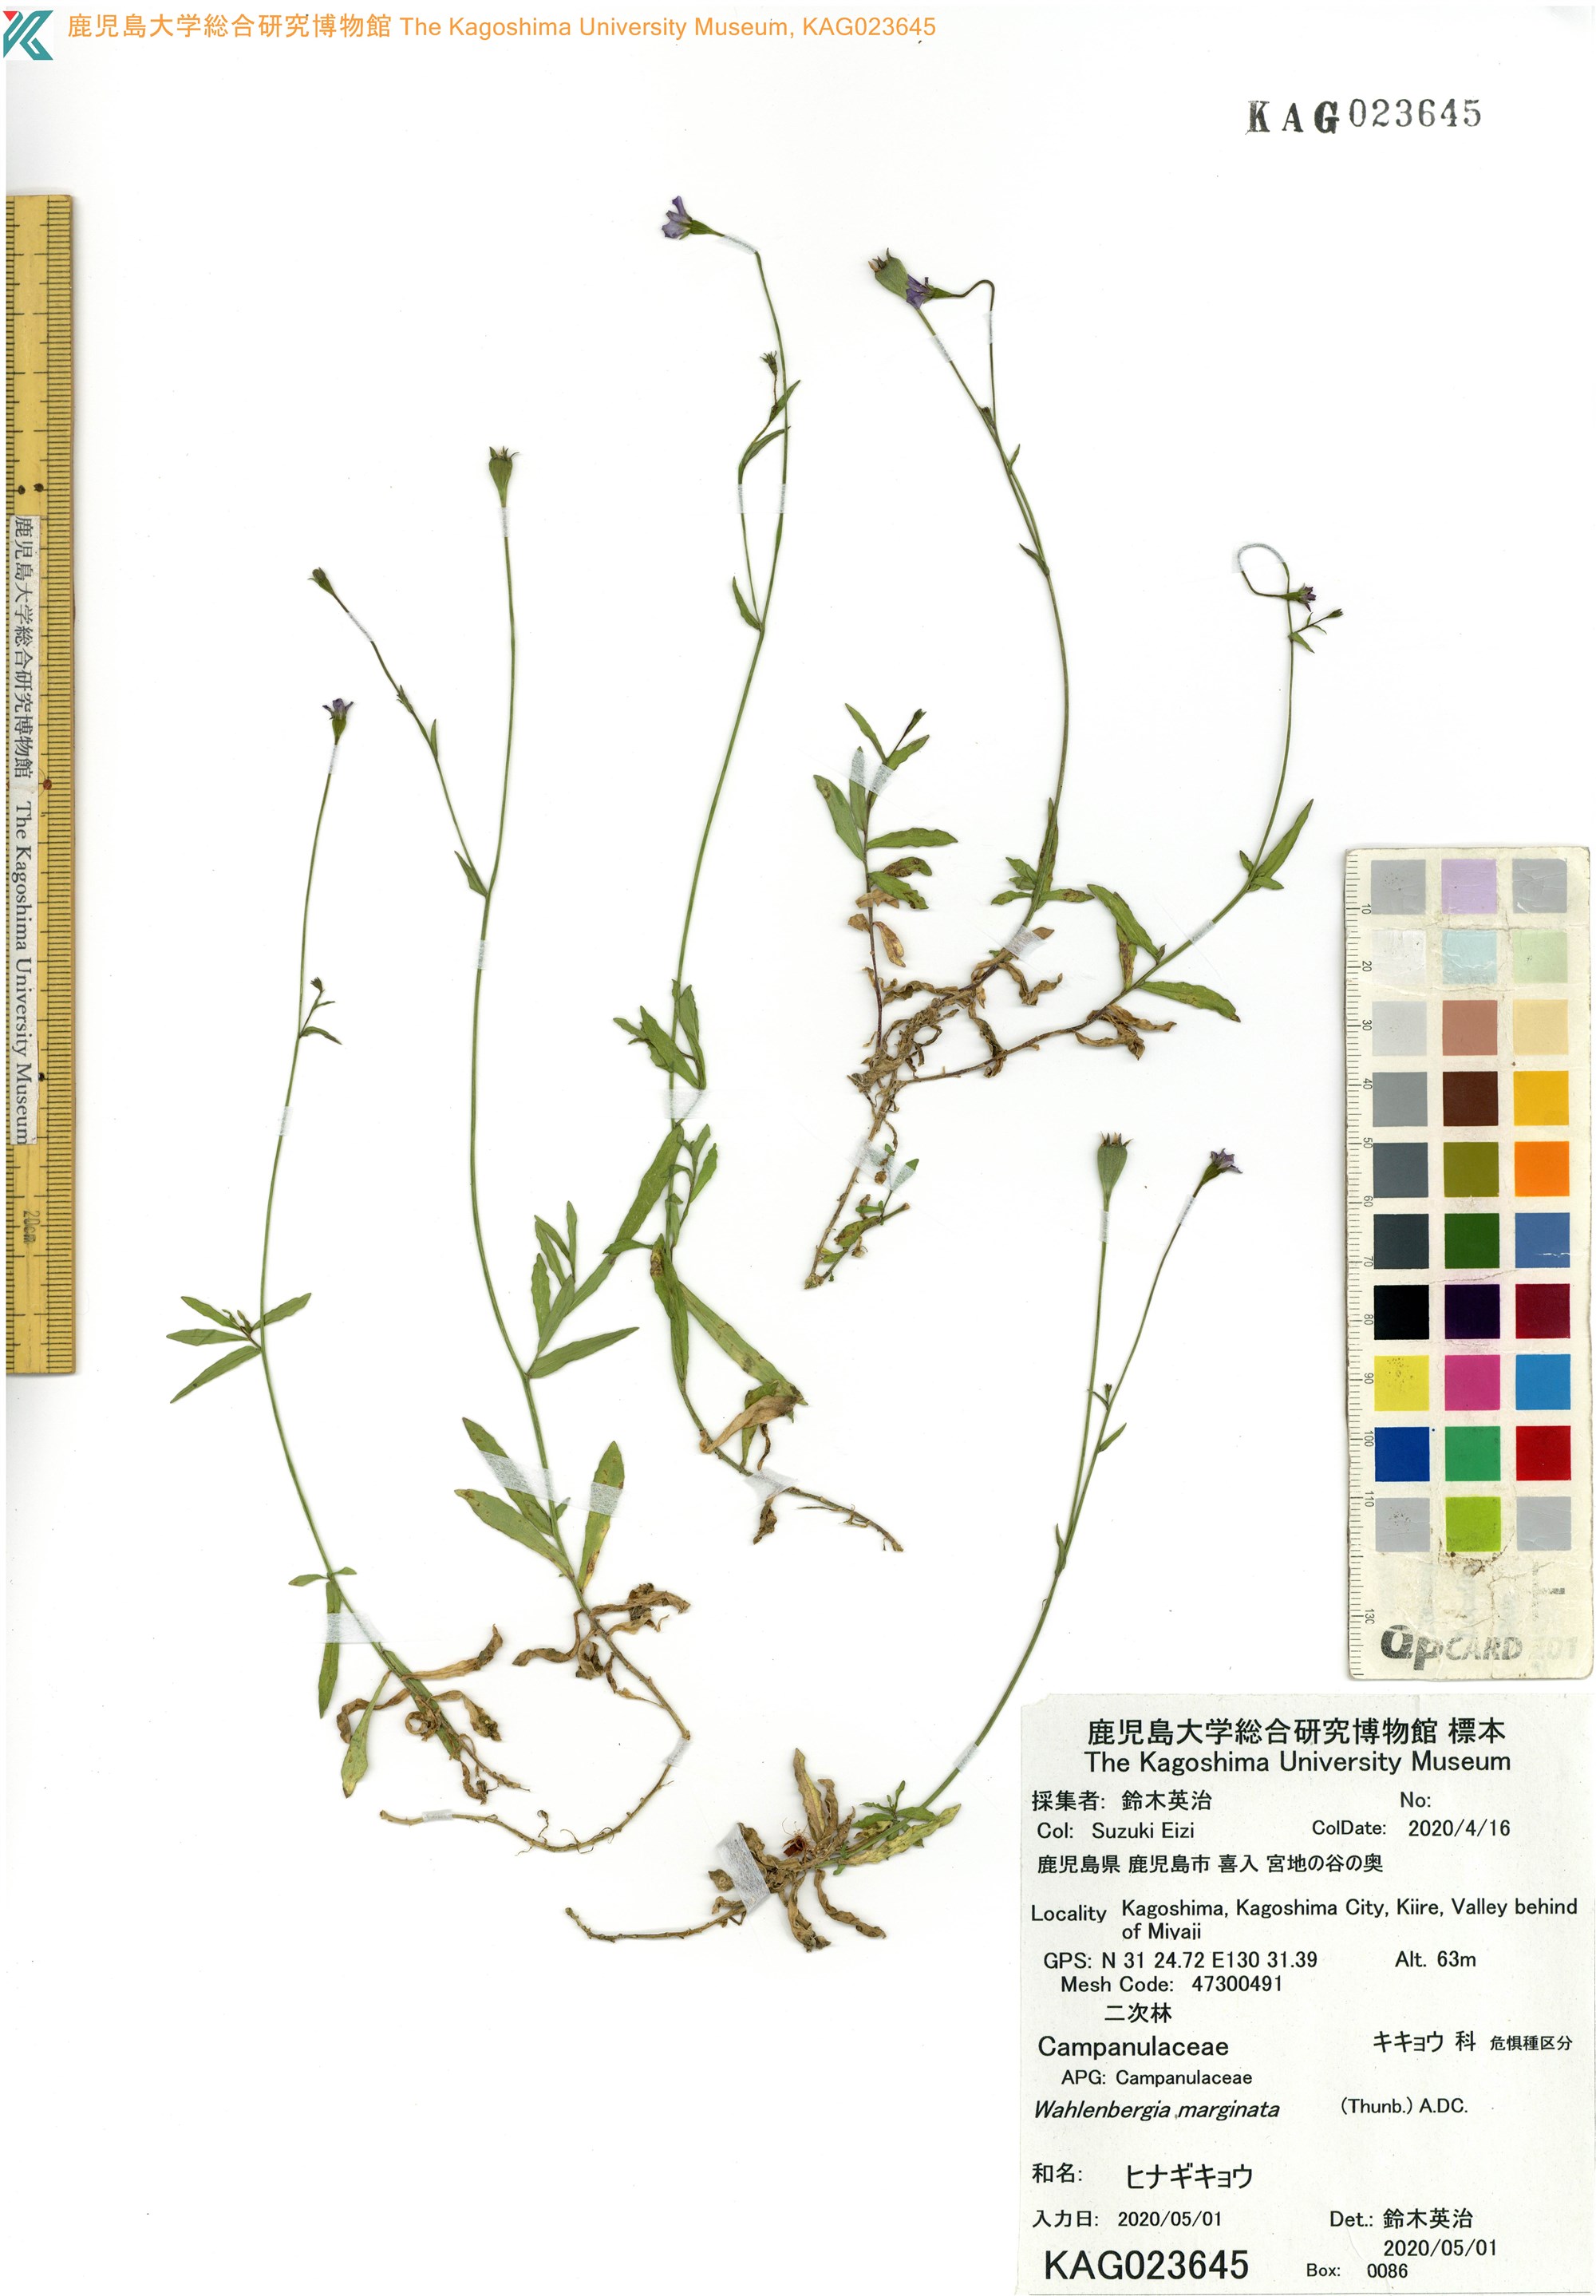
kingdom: Plantae
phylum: Tracheophyta
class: Magnoliopsida
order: Asterales
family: Campanulaceae
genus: Wahlenbergia
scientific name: Wahlenbergia marginata
